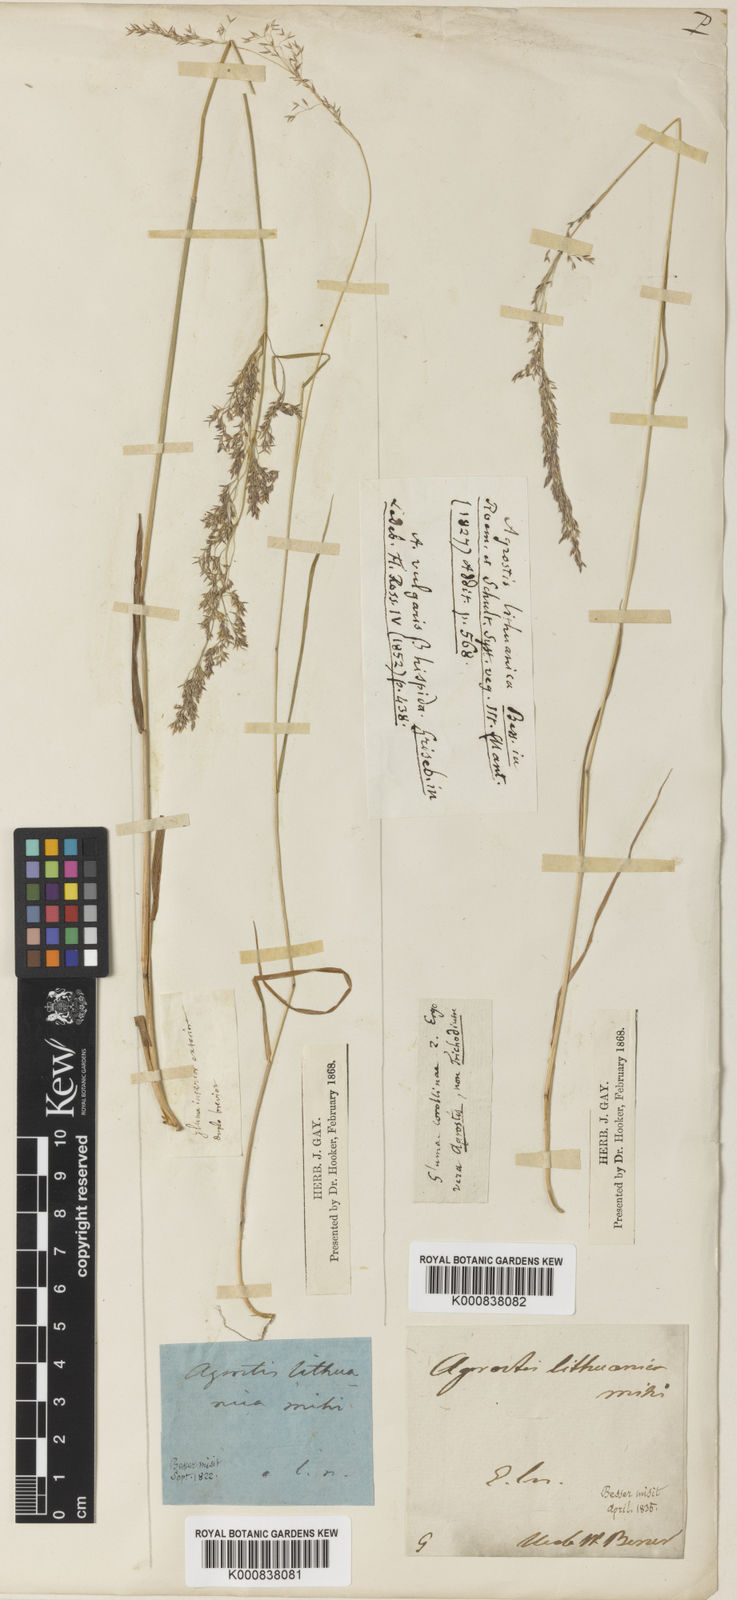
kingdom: Plantae
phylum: Tracheophyta
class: Liliopsida
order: Poales
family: Poaceae
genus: Agrostis
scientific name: Agrostis capillaris
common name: Colonial bentgrass
